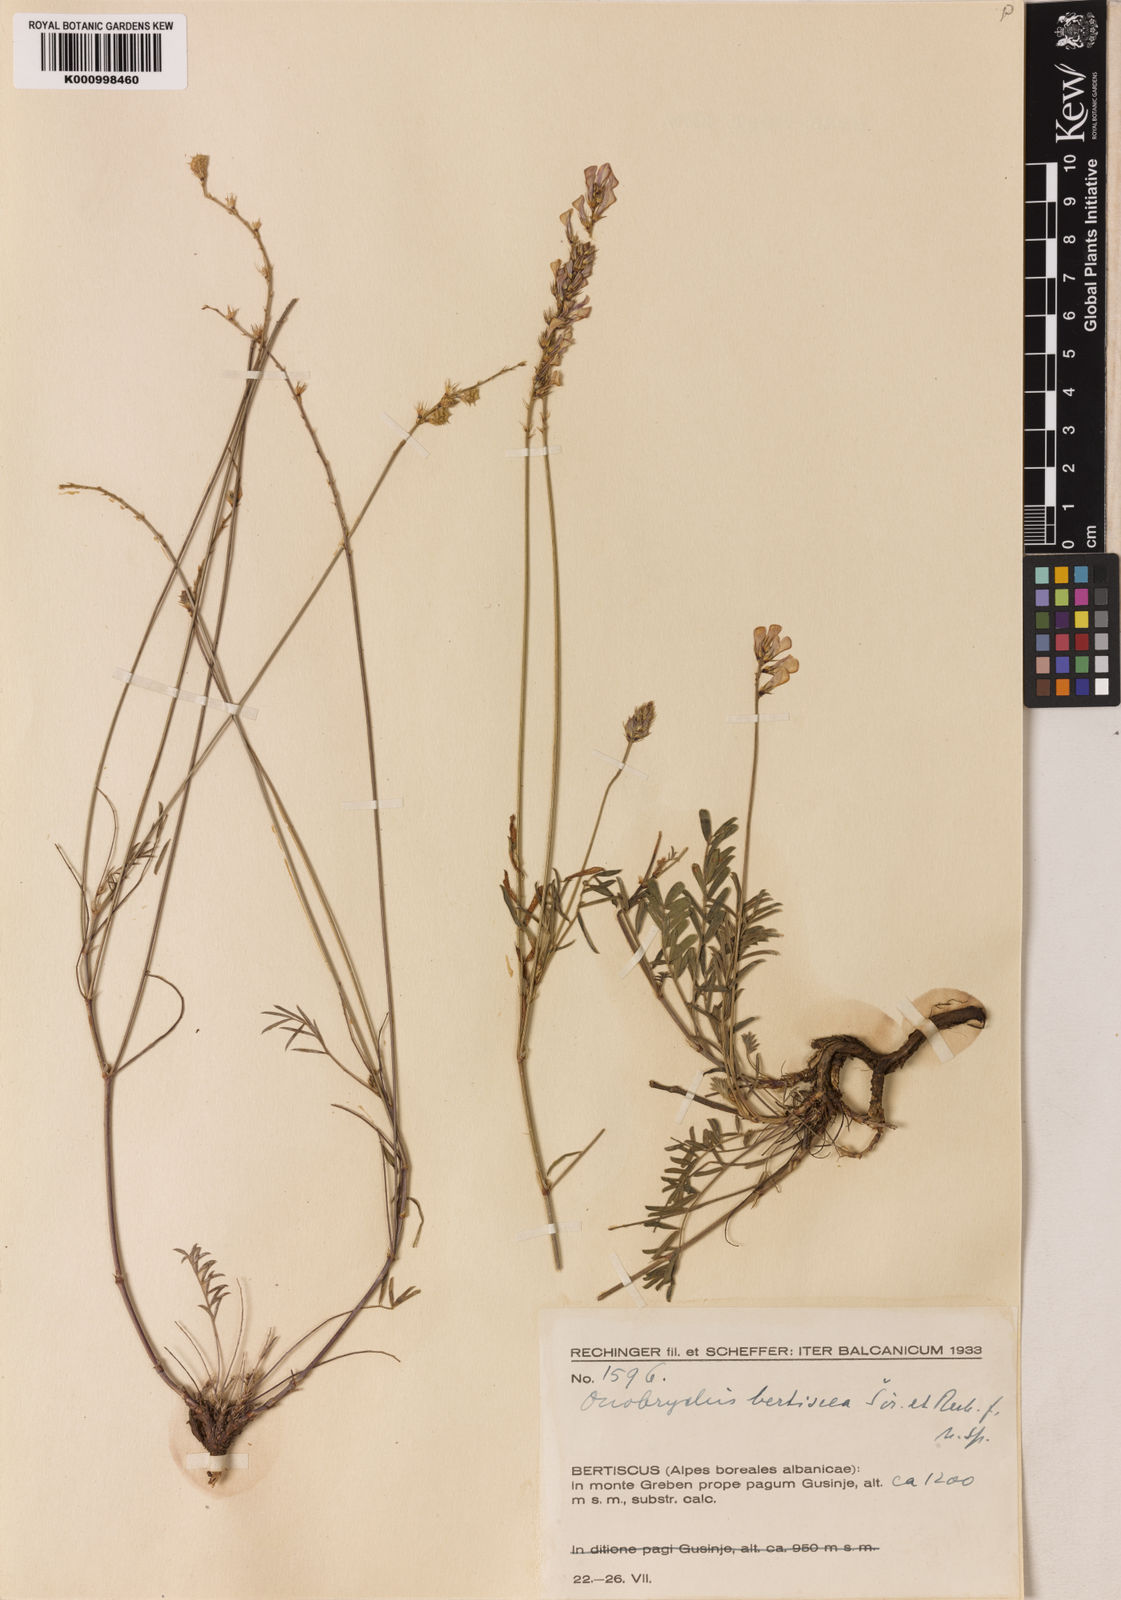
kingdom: Plantae
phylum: Tracheophyta
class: Magnoliopsida
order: Fabales
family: Fabaceae
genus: Onobrychis
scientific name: Onobrychis caput-galli
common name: Cockscomb sainfoin
